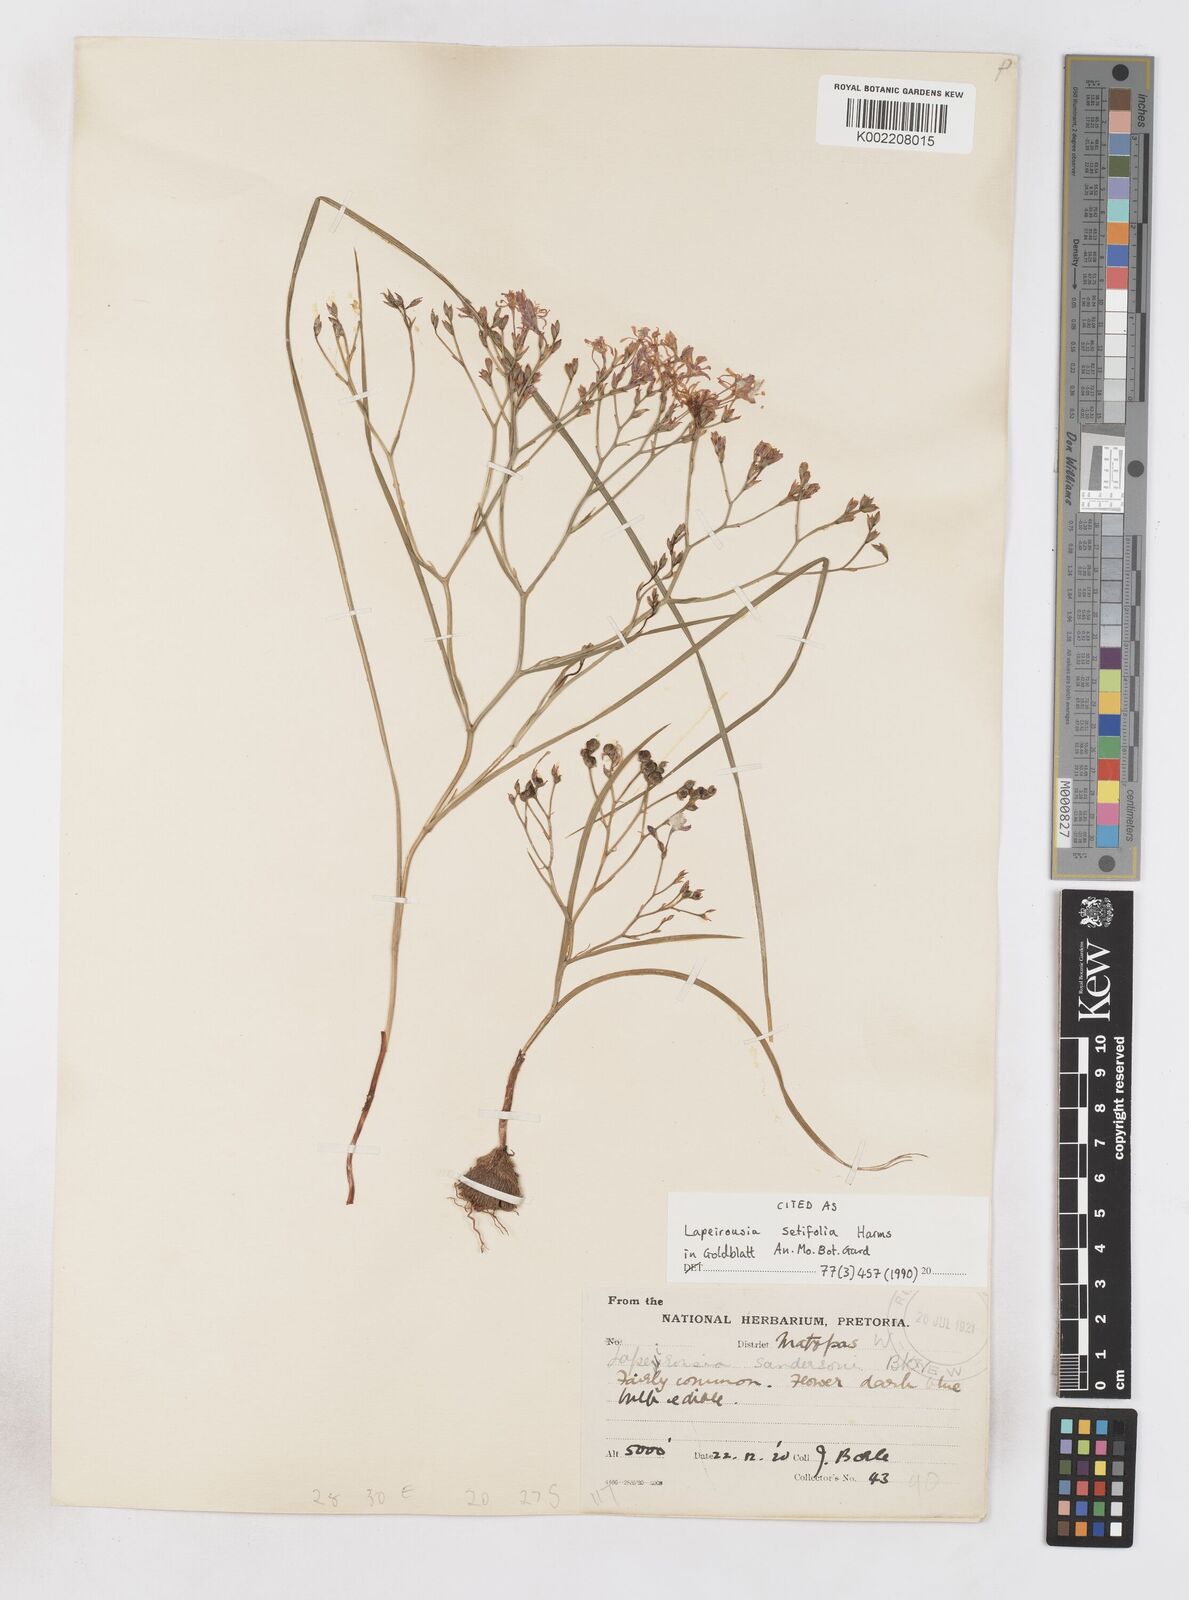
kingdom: Plantae
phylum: Tracheophyta
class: Liliopsida
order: Asparagales
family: Iridaceae
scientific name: Iridaceae
